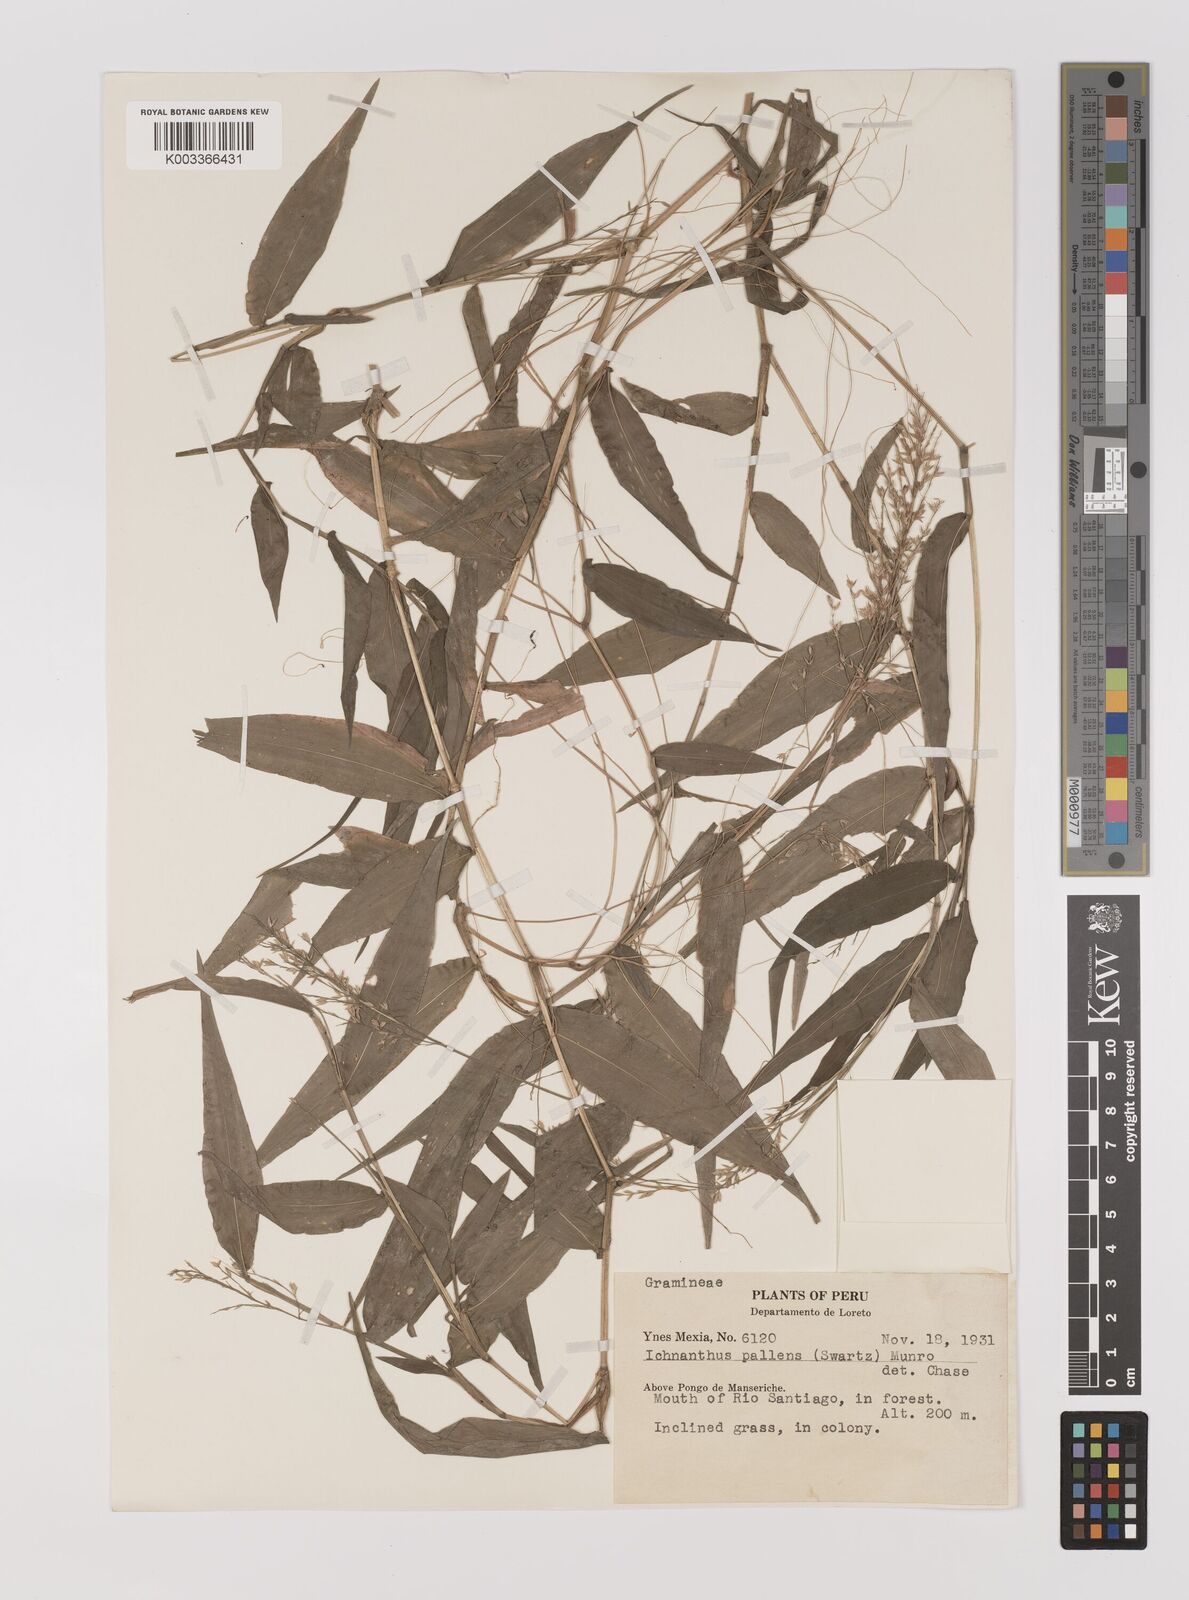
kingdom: Plantae
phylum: Tracheophyta
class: Liliopsida
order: Poales
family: Poaceae
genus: Ichnanthus
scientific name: Ichnanthus pallens
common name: Water grass
